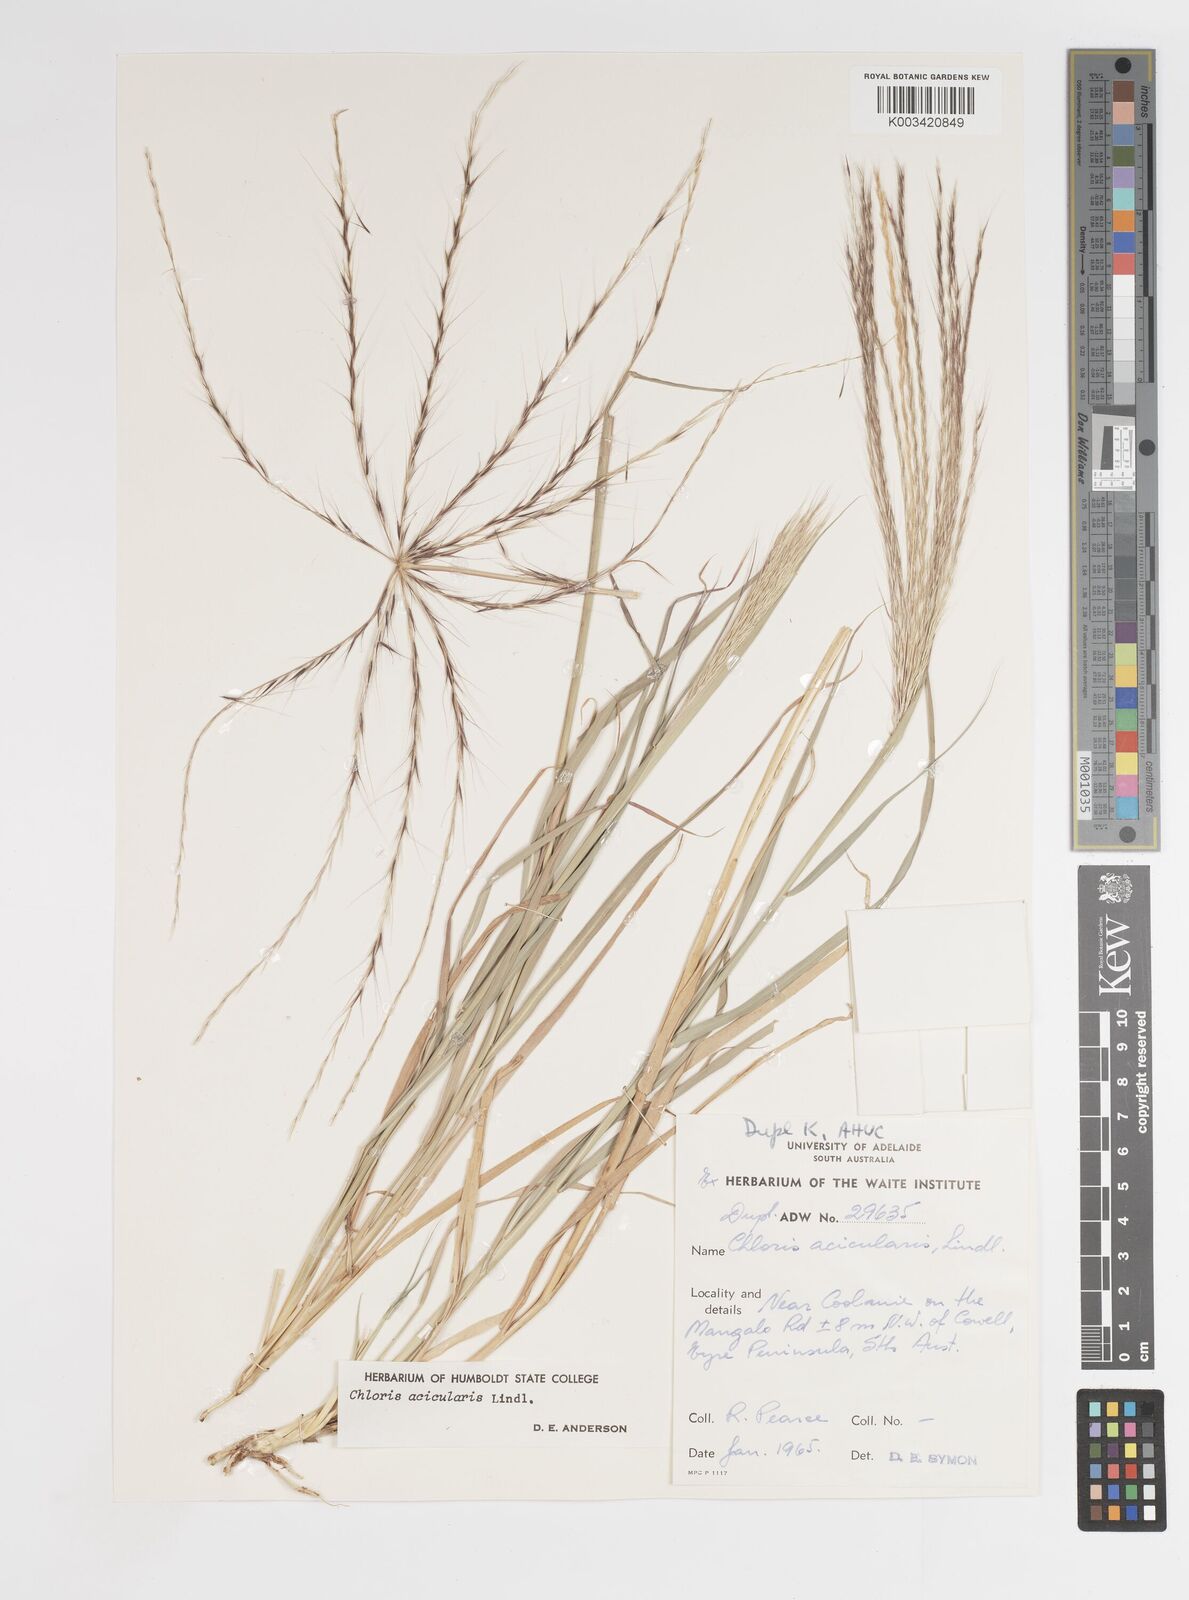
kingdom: Plantae
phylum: Tracheophyta
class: Liliopsida
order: Poales
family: Poaceae
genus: Enteropogon
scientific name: Enteropogon acicularis
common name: Curly windmill grass
